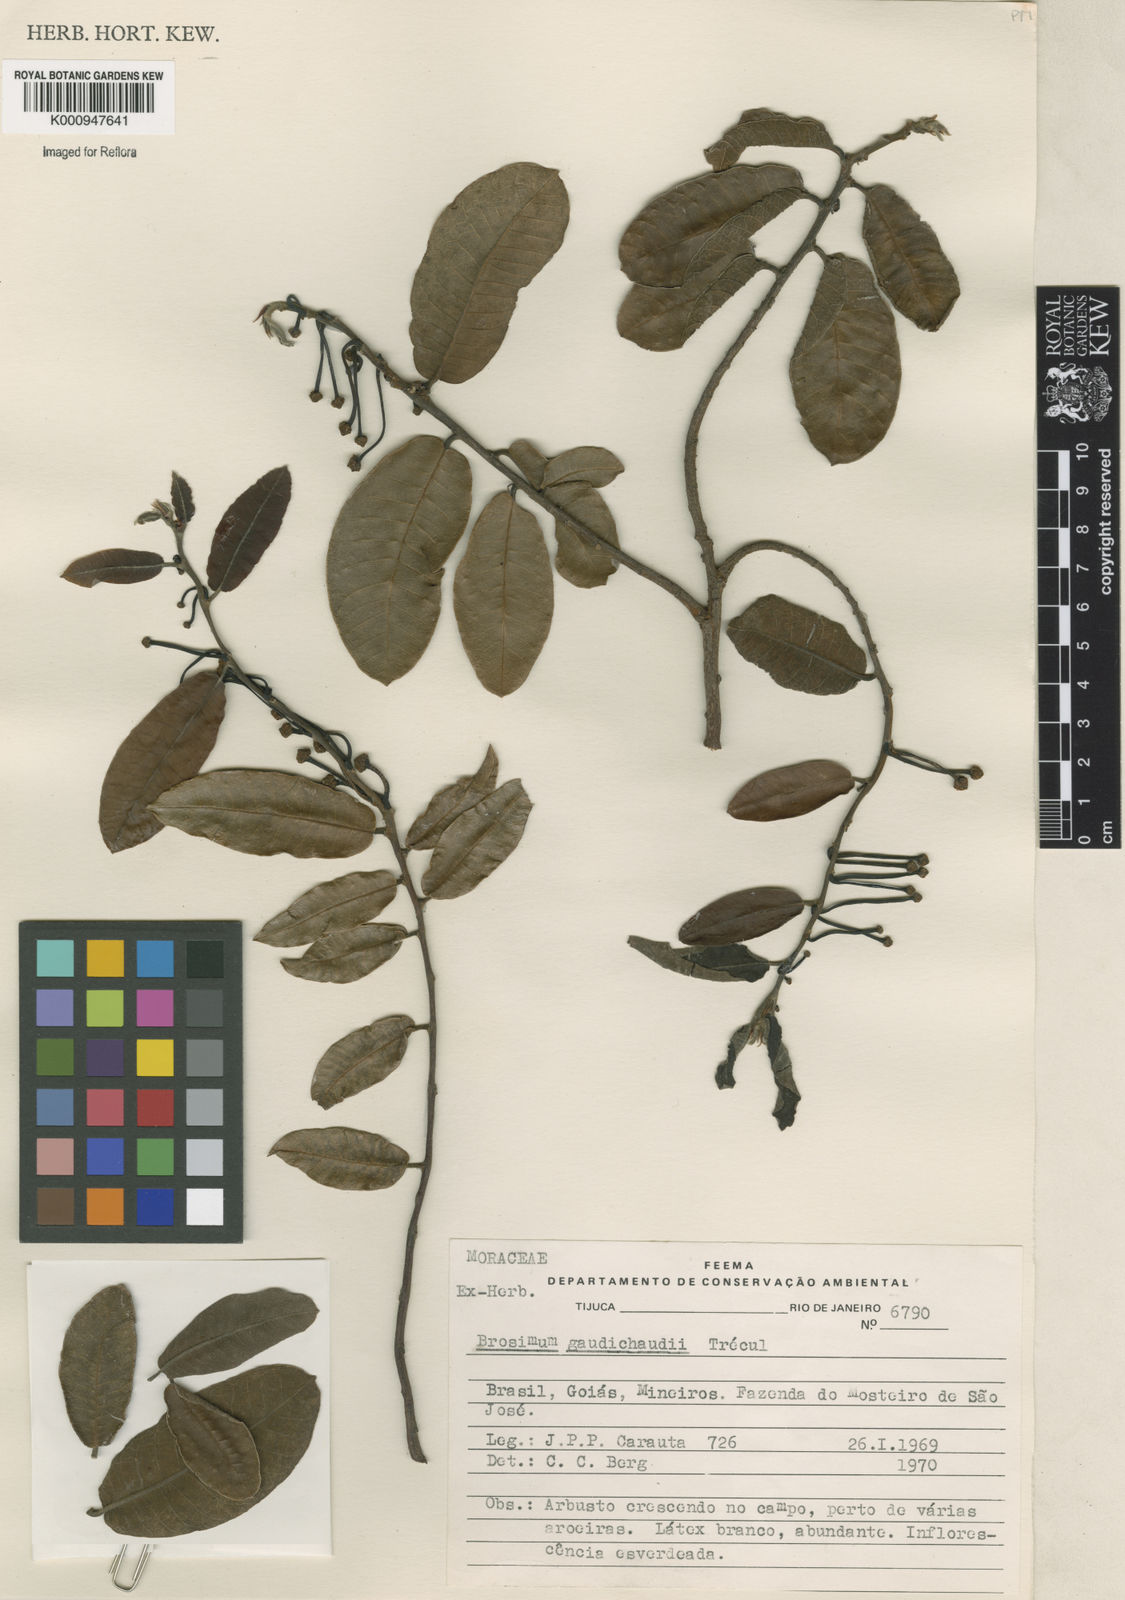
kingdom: Plantae
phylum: Tracheophyta
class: Magnoliopsida
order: Rosales
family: Moraceae
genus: Brosimum
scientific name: Brosimum
